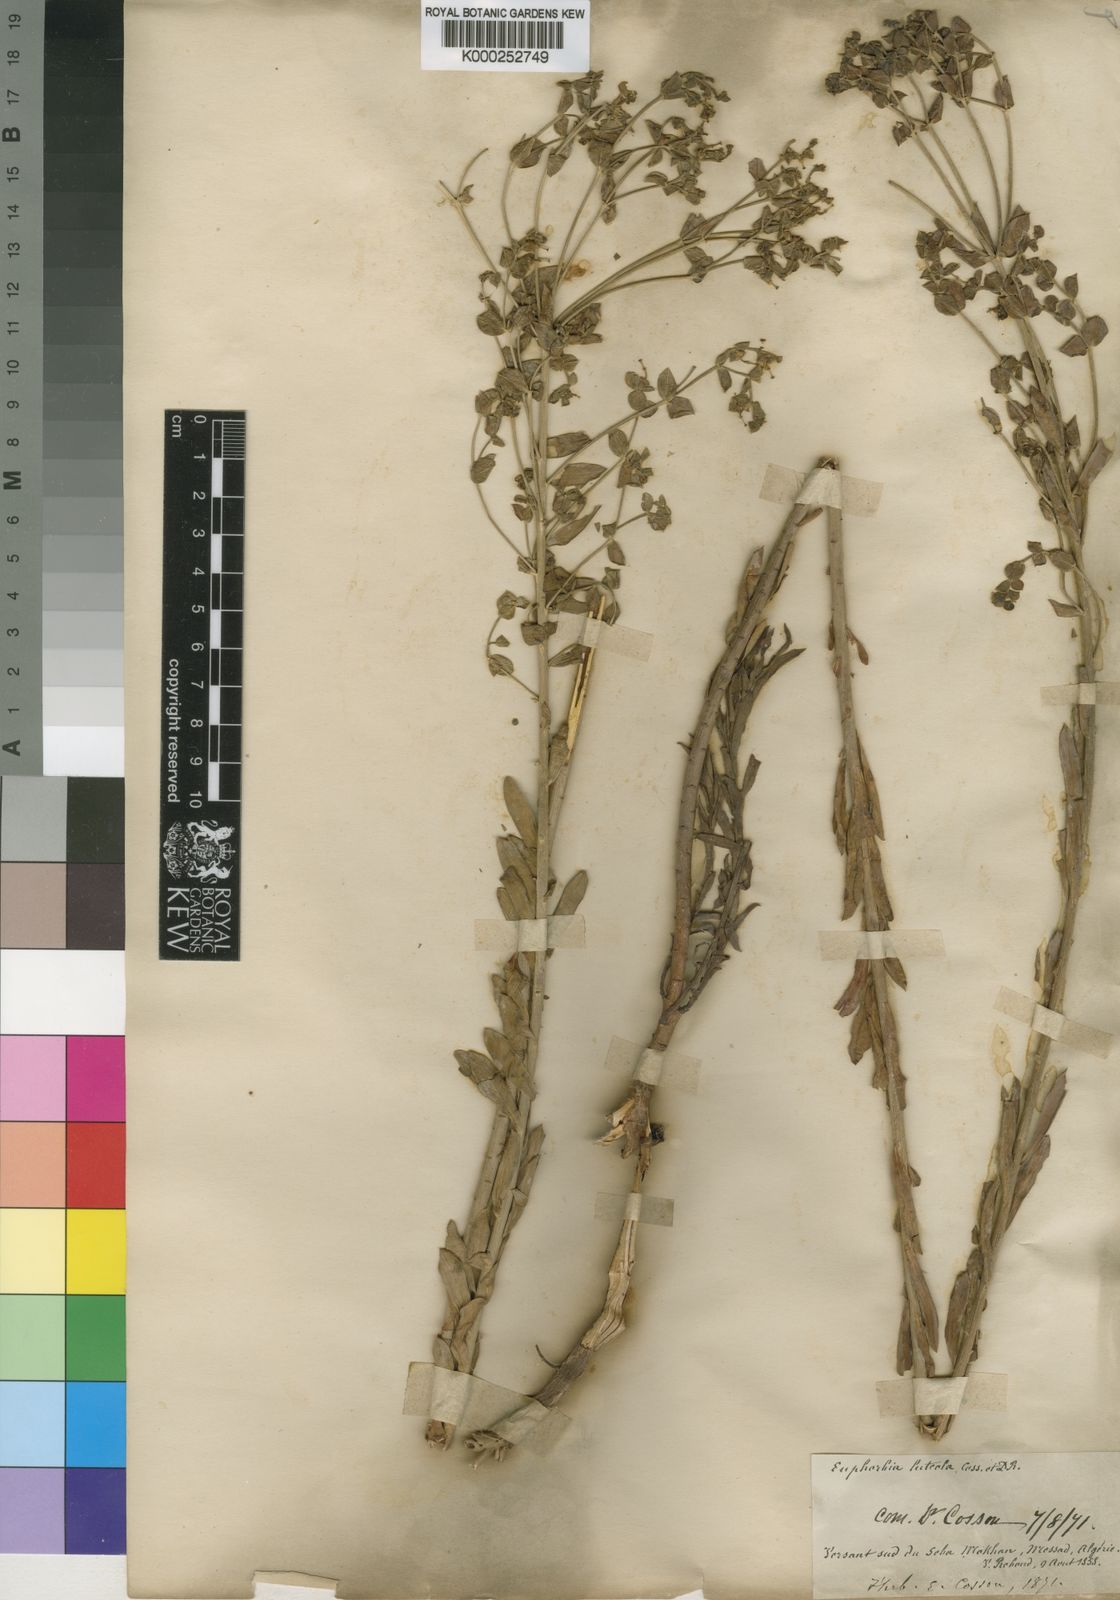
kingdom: Plantae
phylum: Tracheophyta
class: Magnoliopsida
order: Malpighiales
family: Euphorbiaceae
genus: Euphorbia
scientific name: Euphorbia nicaeensis
